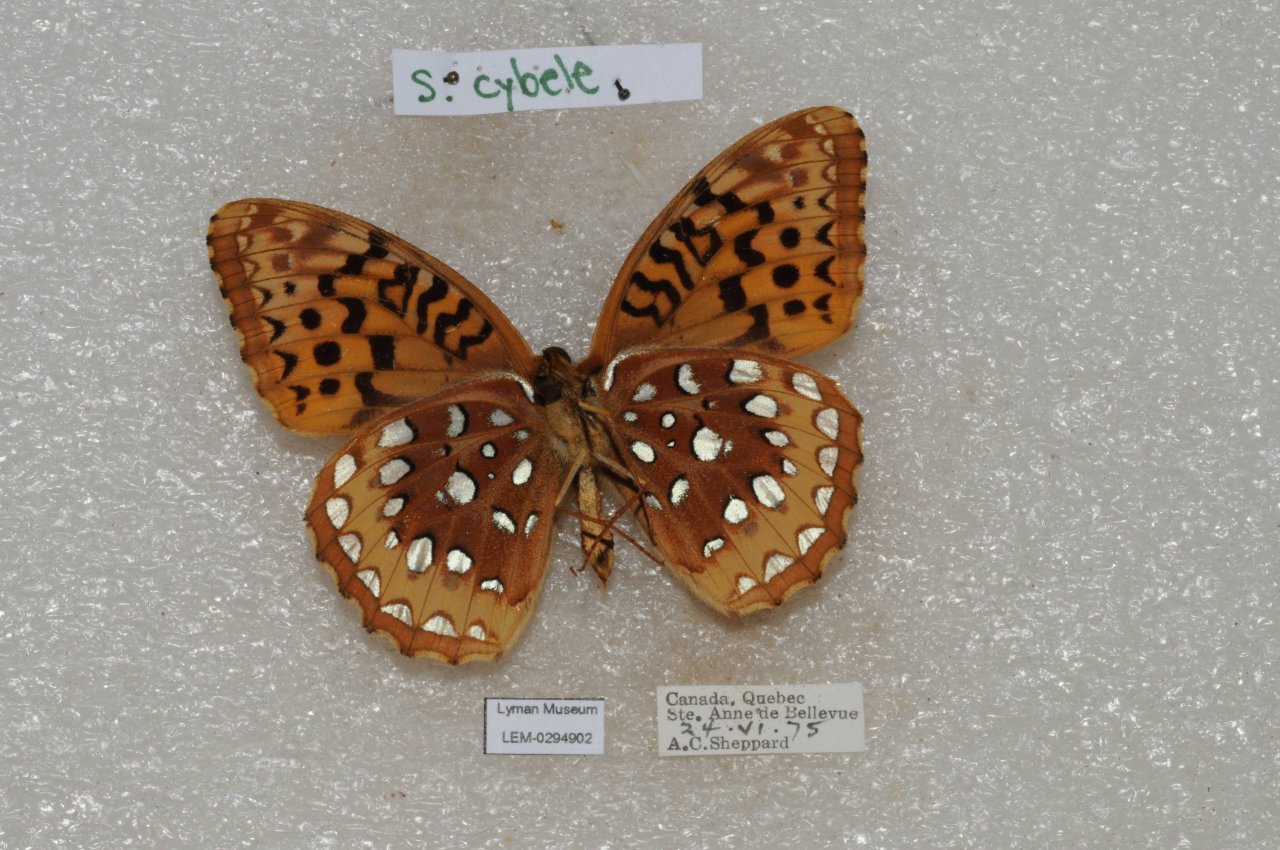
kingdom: Animalia
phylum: Arthropoda
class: Insecta
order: Lepidoptera
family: Nymphalidae
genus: Speyeria
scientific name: Speyeria cybele
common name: Great Spangled Fritillary
